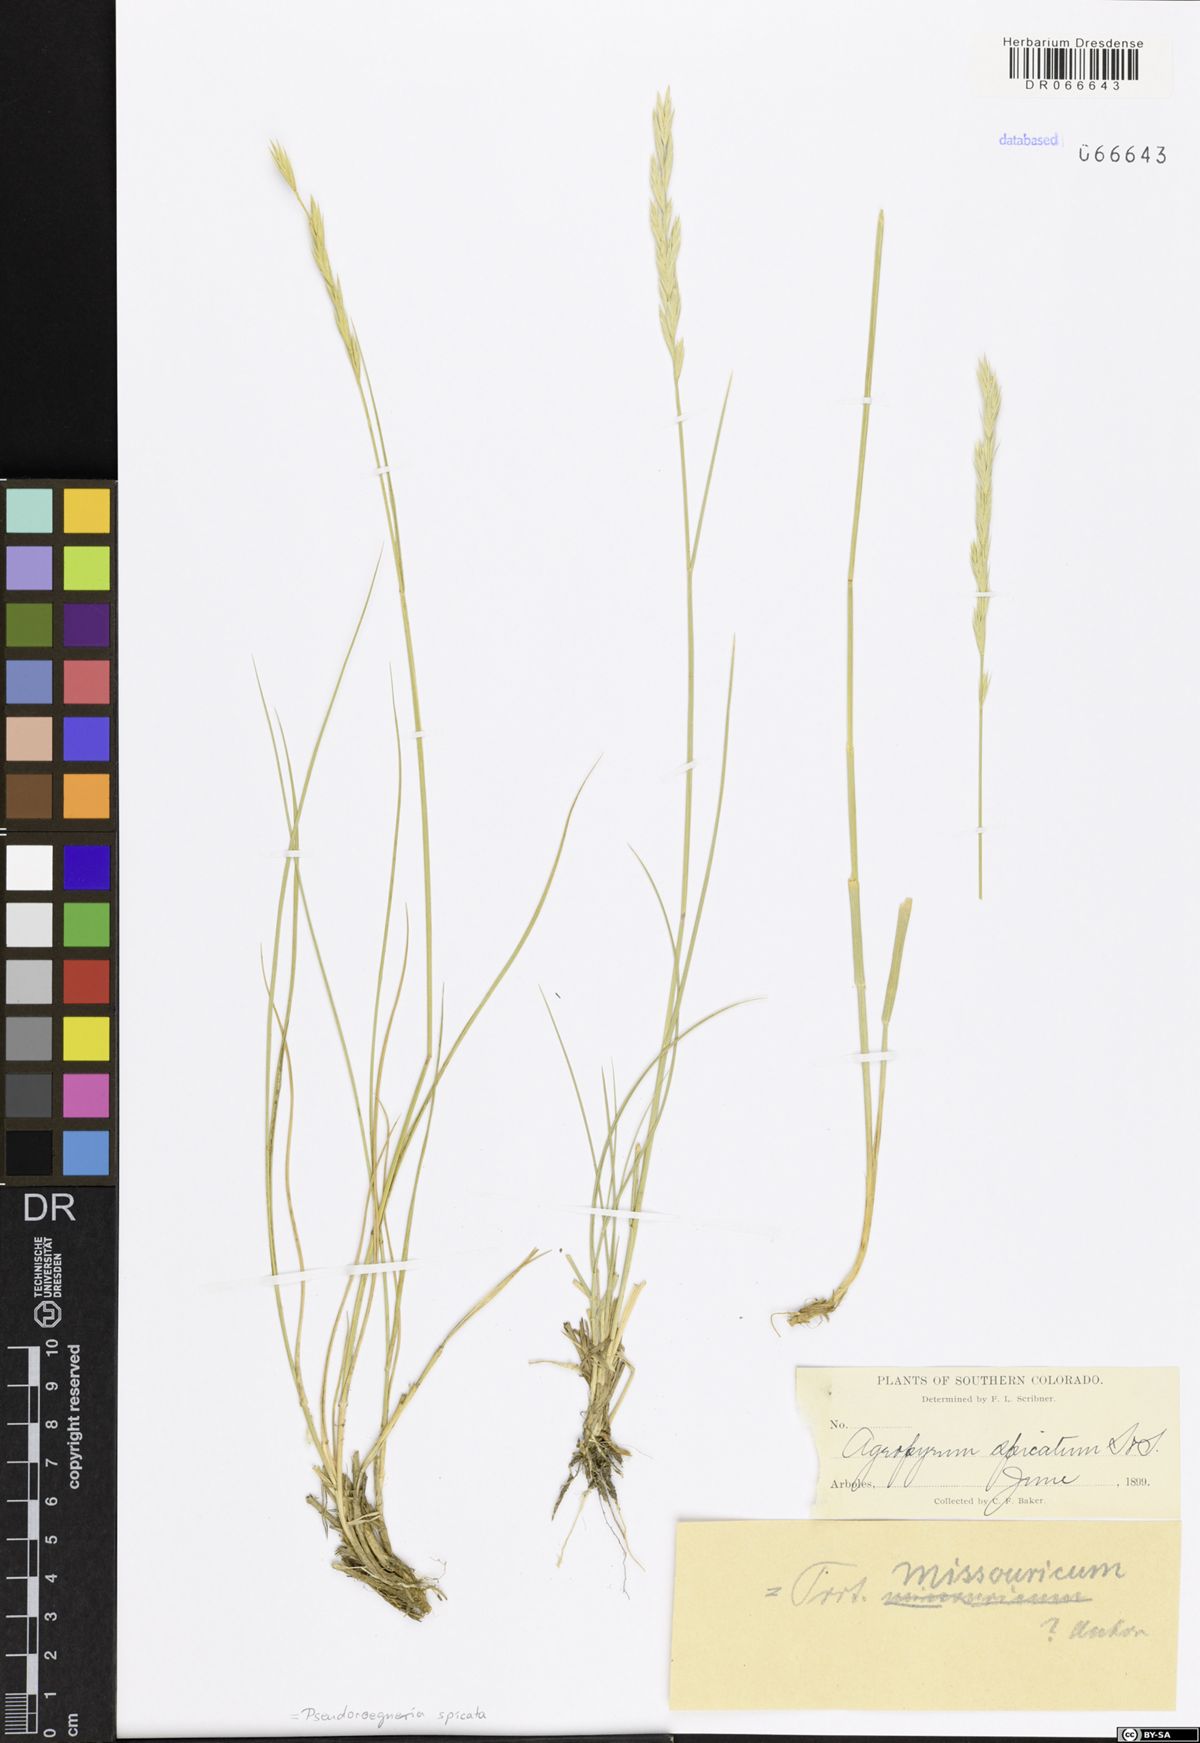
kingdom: Plantae
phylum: Tracheophyta
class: Liliopsida
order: Poales
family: Poaceae
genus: Pseudoroegneria
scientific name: Pseudoroegneria spicata
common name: Bluebunch wheatgrass
